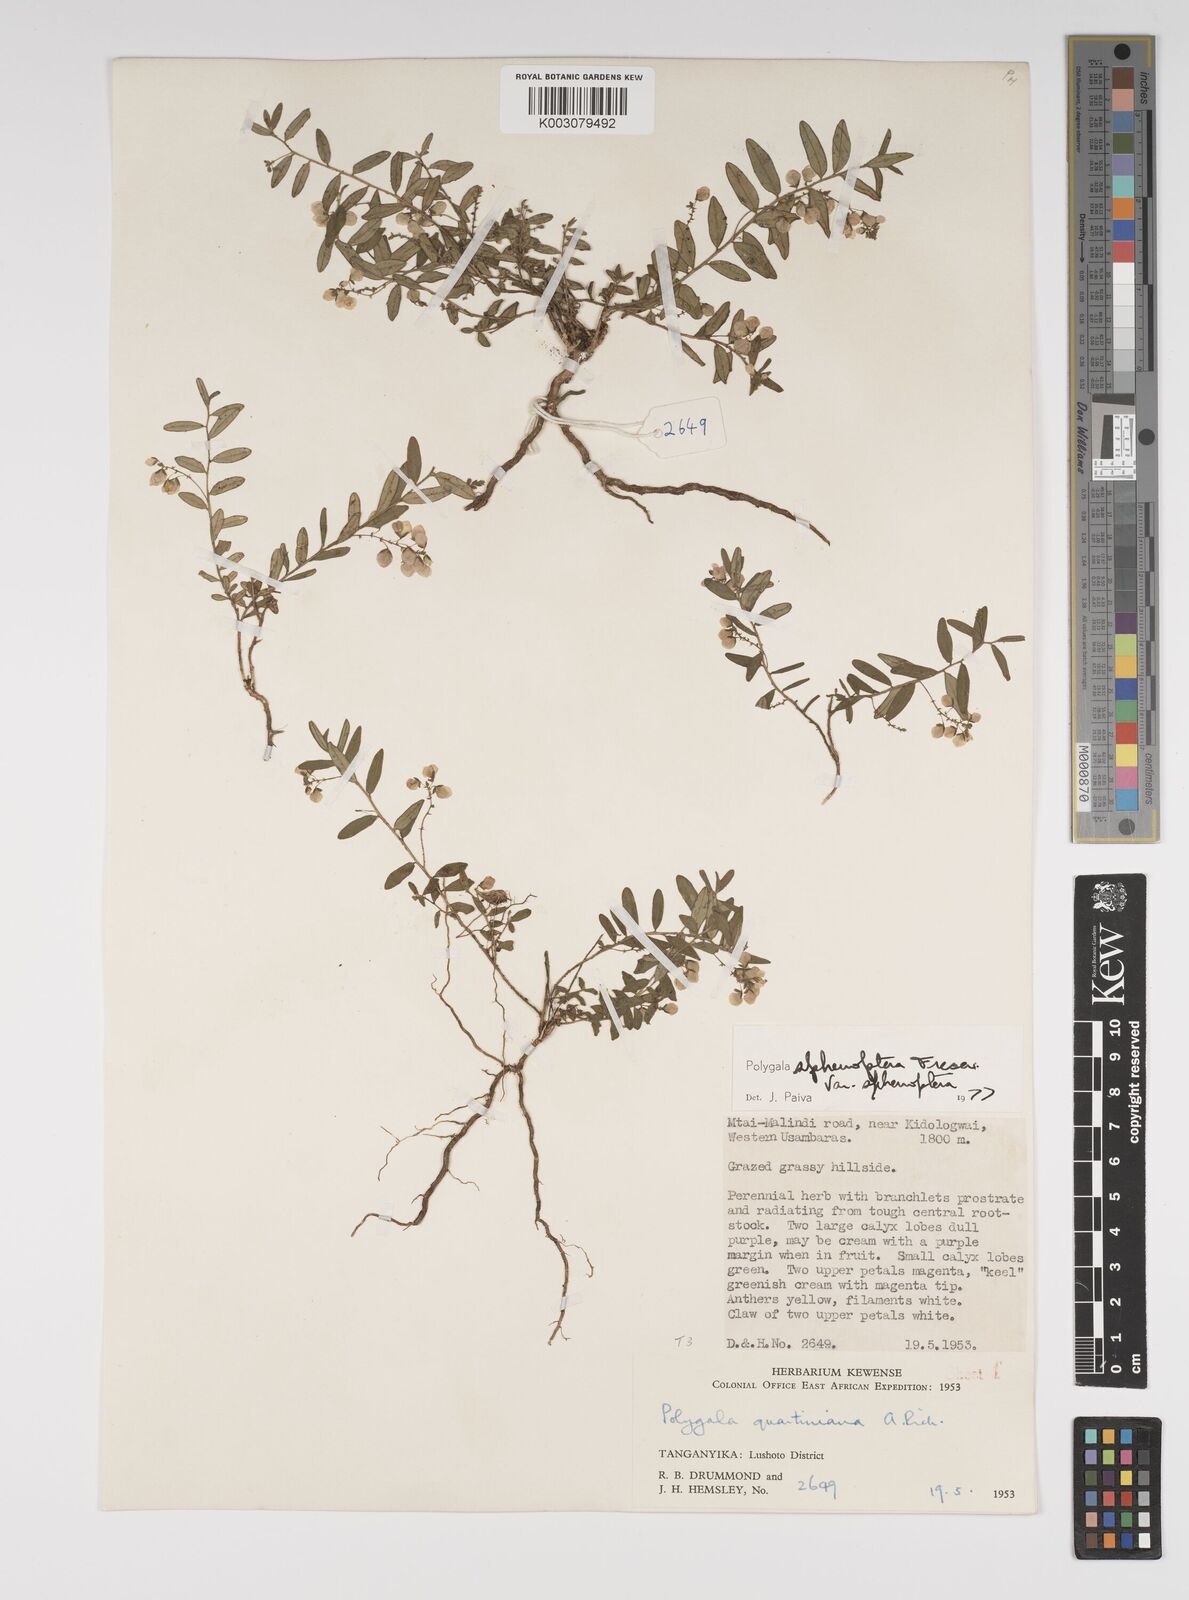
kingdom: Plantae
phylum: Tracheophyta
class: Magnoliopsida
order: Fabales
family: Polygalaceae
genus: Polygala
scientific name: Polygala sphenoptera
